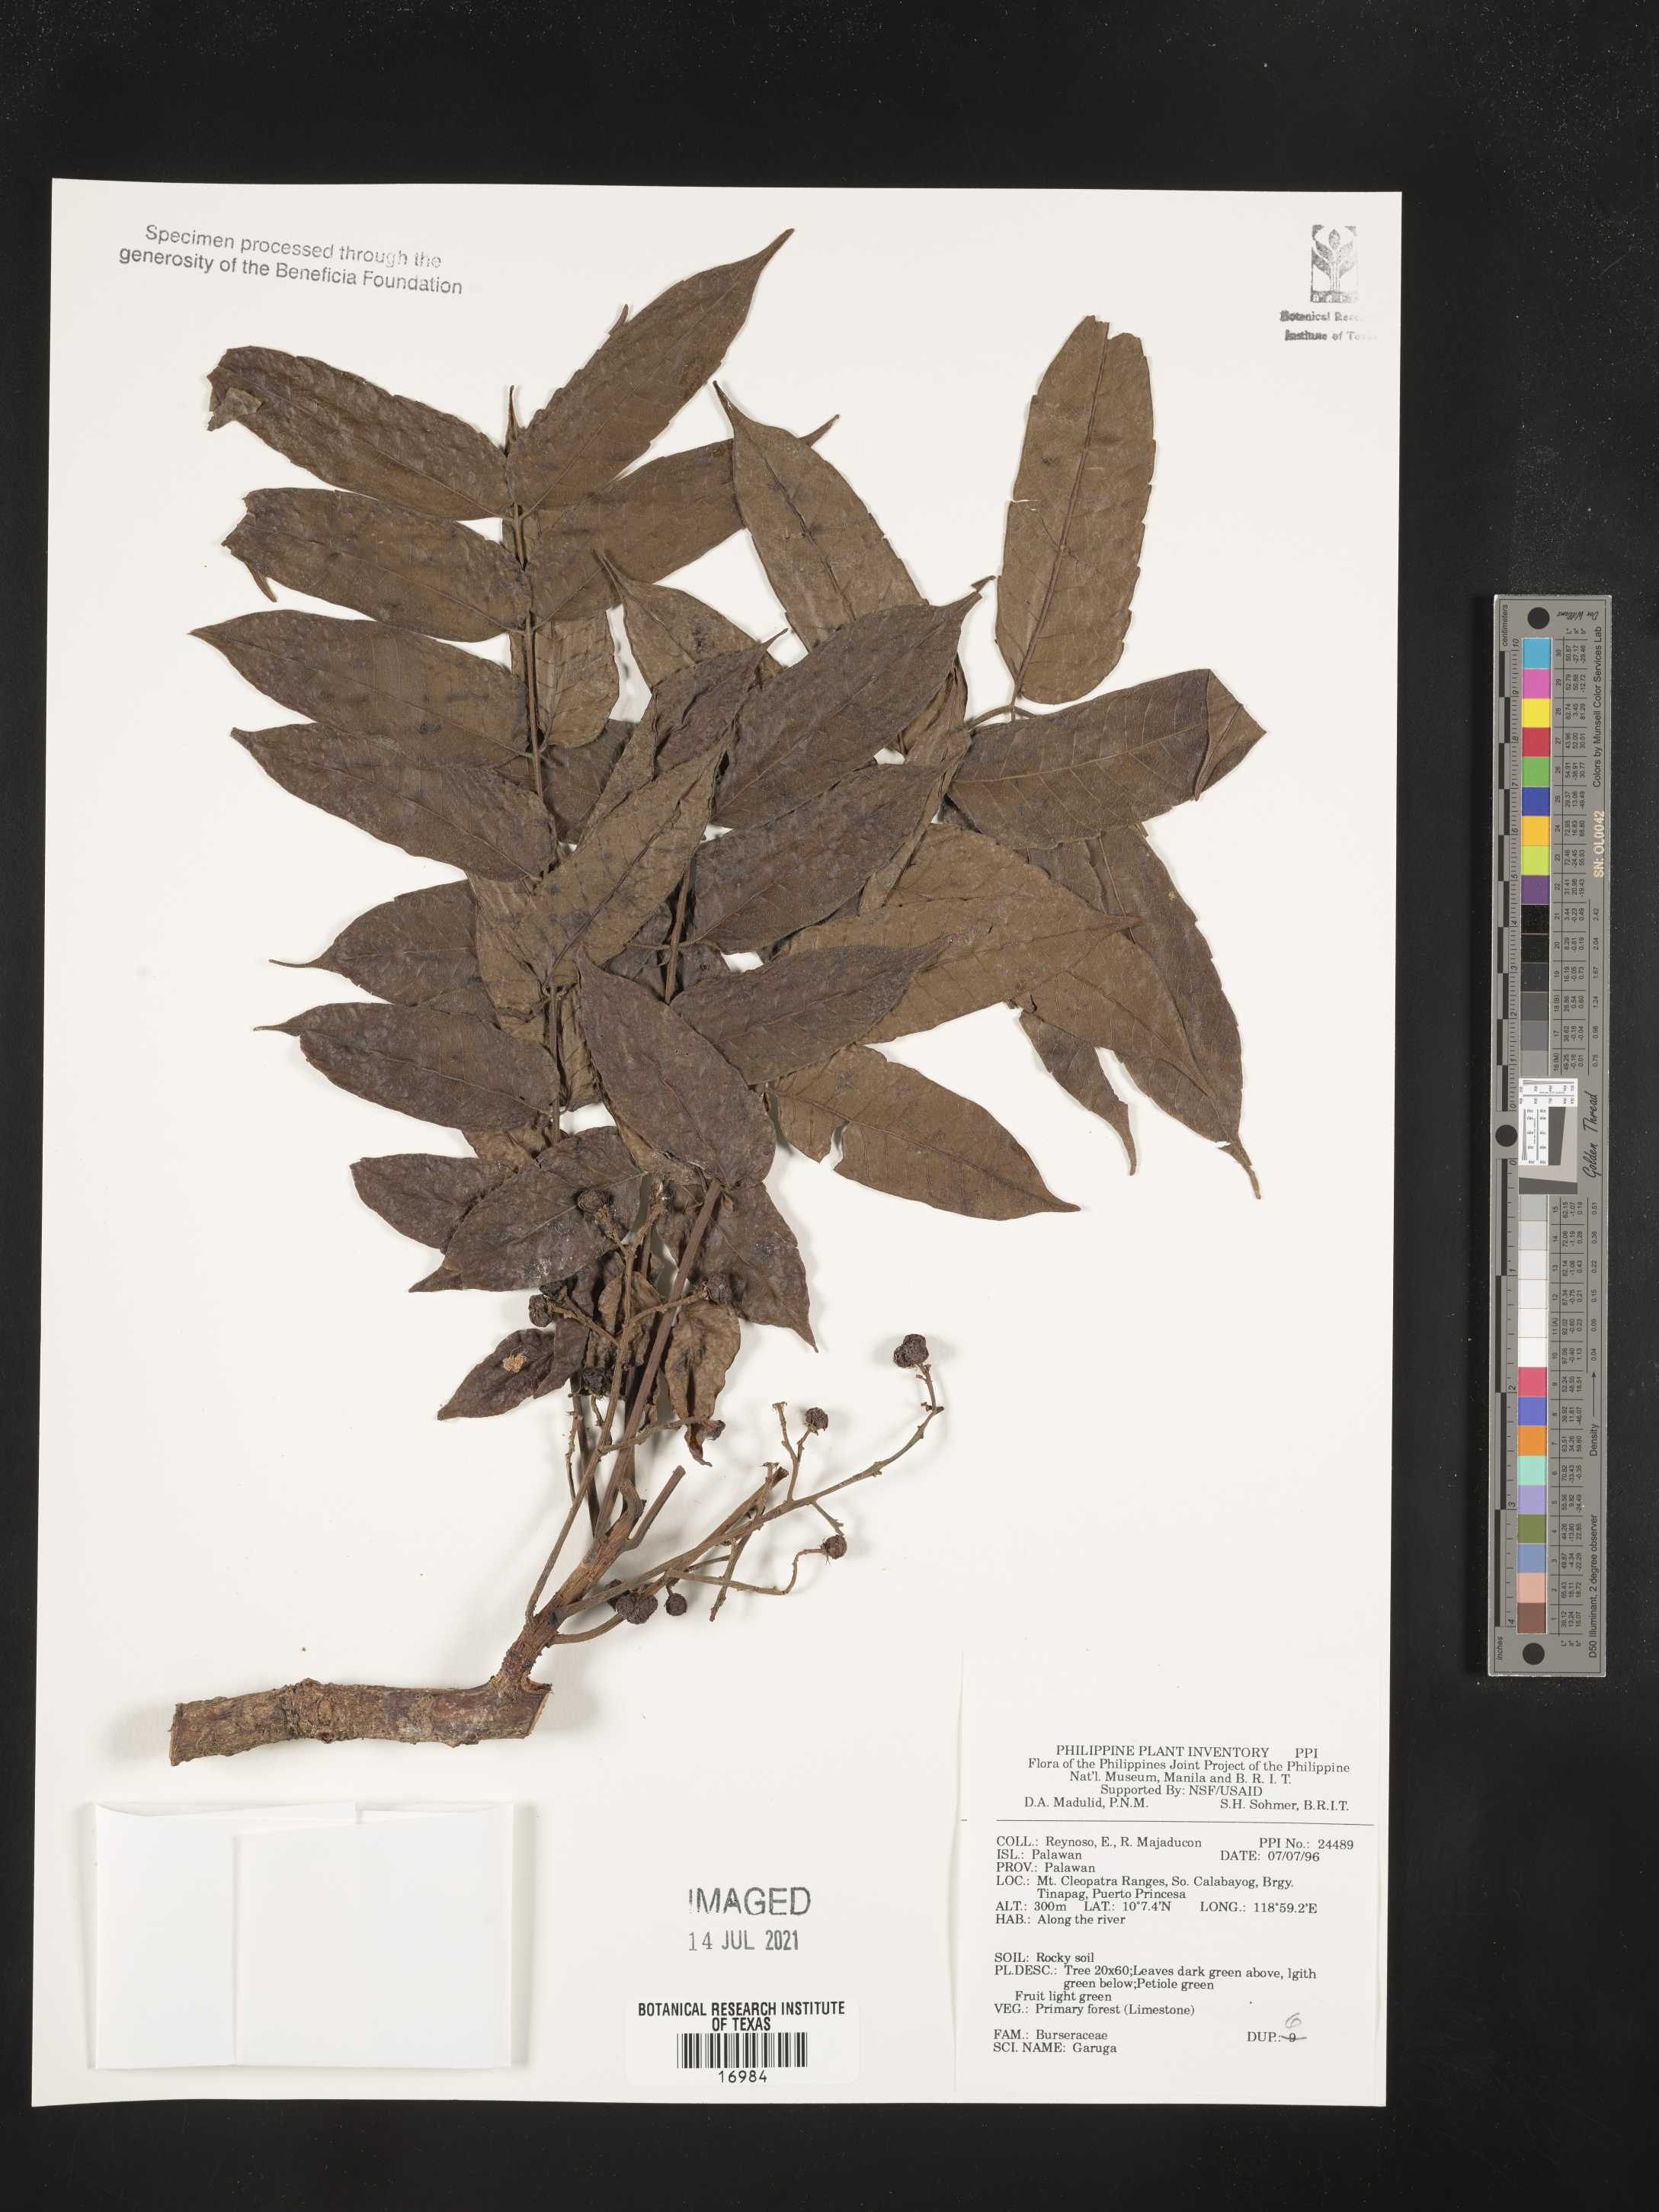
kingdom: Plantae
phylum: Tracheophyta
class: Magnoliopsida
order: Sapindales
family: Burseraceae
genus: Garuga
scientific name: Garuga
